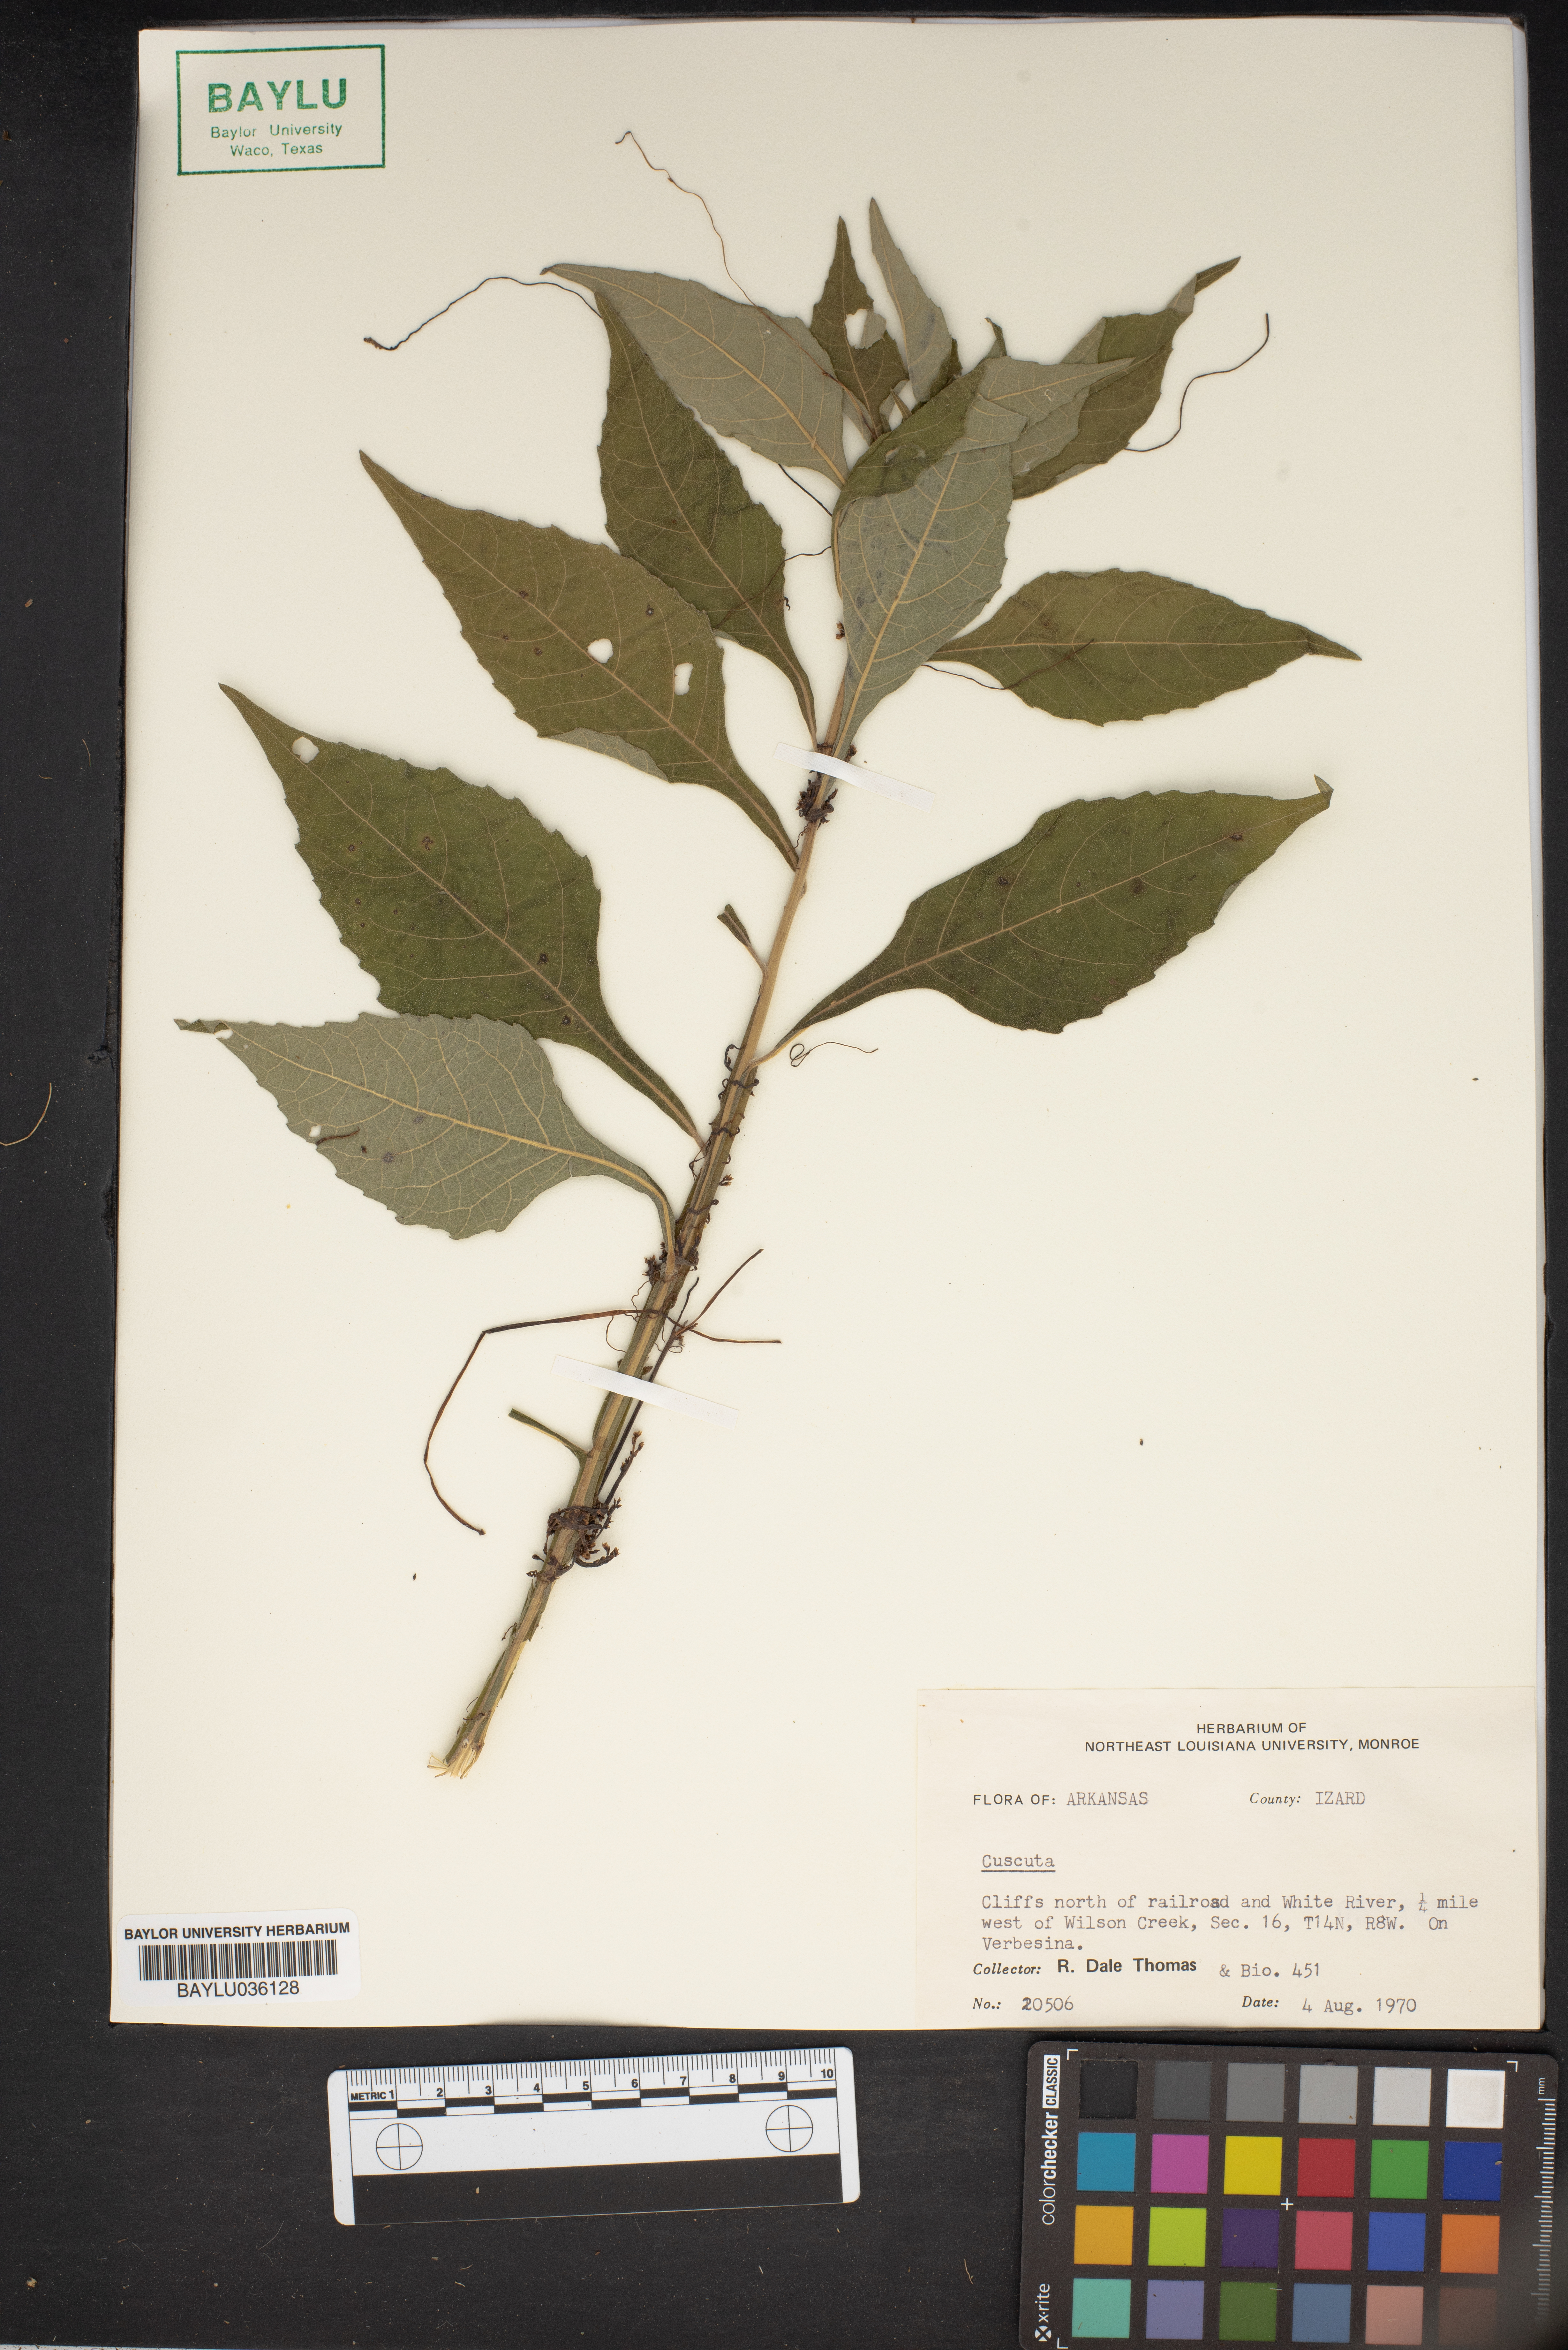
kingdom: Plantae
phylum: Tracheophyta
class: Magnoliopsida
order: Solanales
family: Convolvulaceae
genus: Cuscuta
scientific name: Cuscuta
